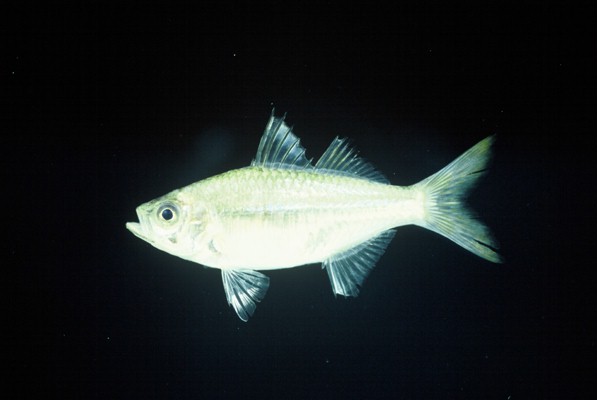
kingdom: Animalia
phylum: Chordata
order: Perciformes
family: Ambassidae
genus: Ambassis
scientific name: Ambassis natalensis
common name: Slender glassy
